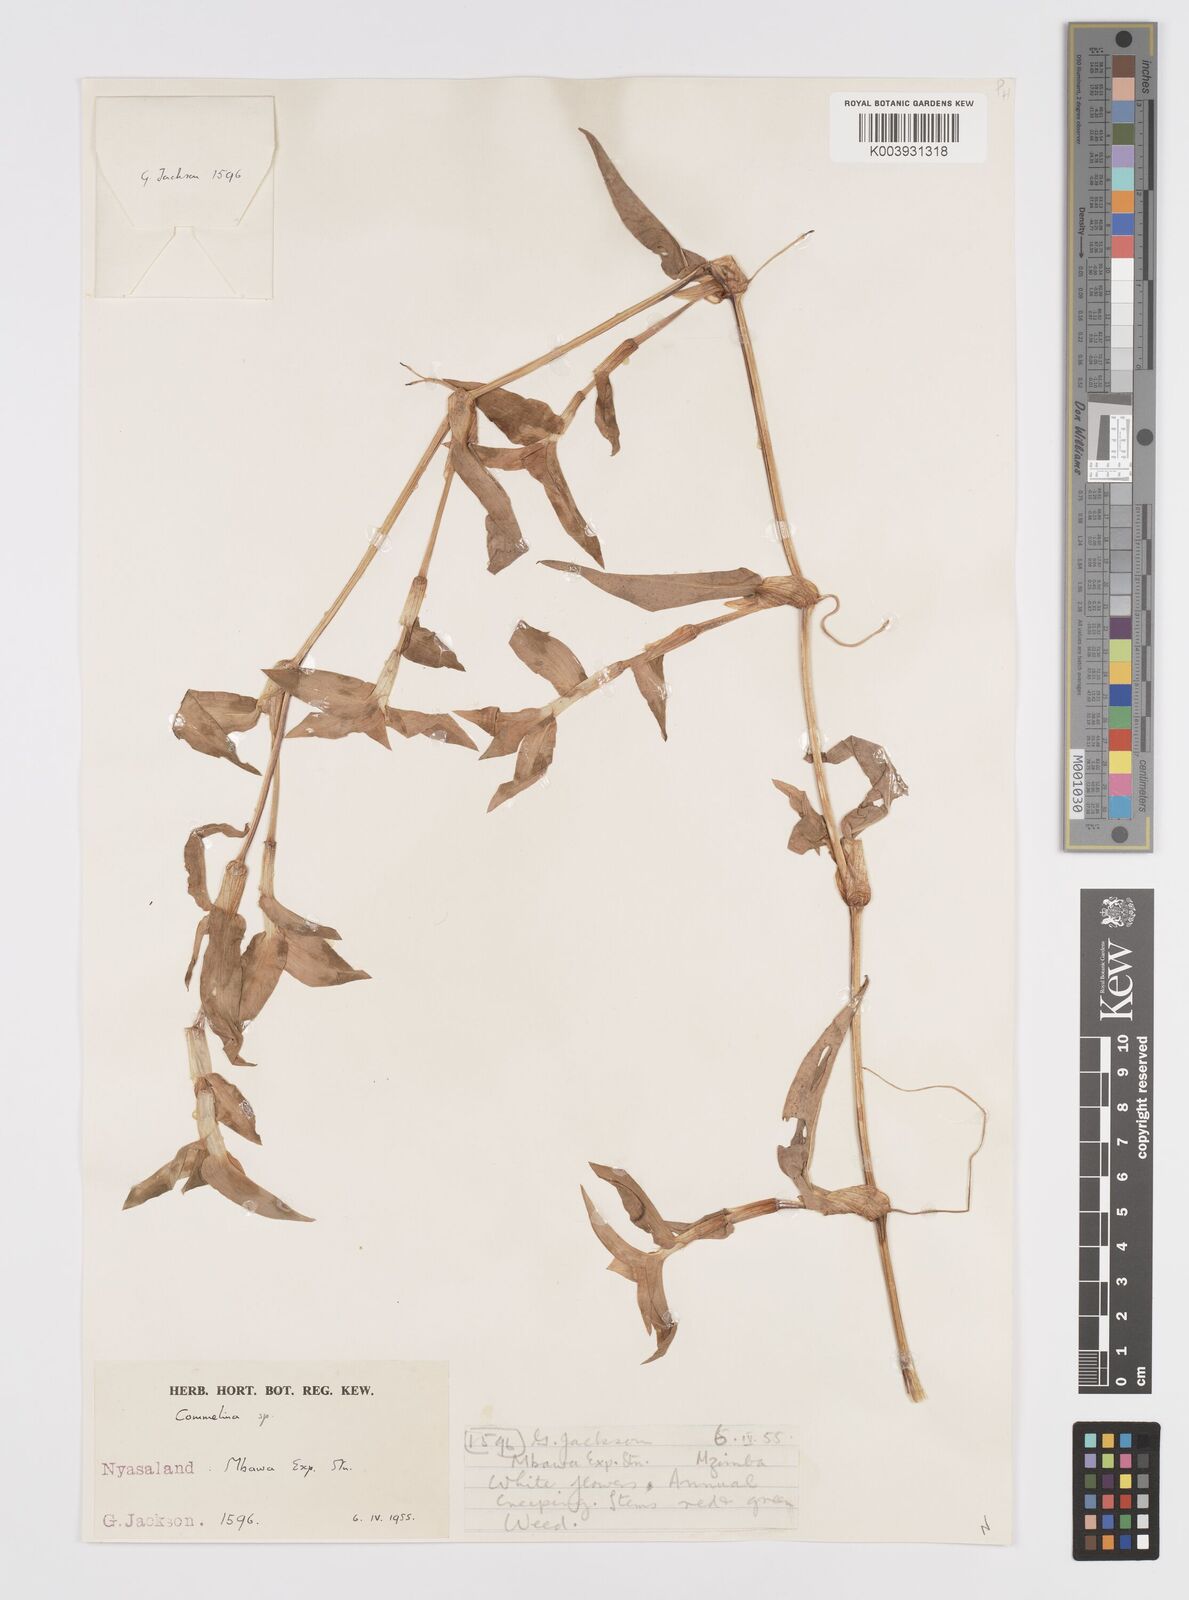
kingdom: Plantae
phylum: Tracheophyta
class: Liliopsida
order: Commelinales
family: Commelinaceae
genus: Commelina
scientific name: Commelina
